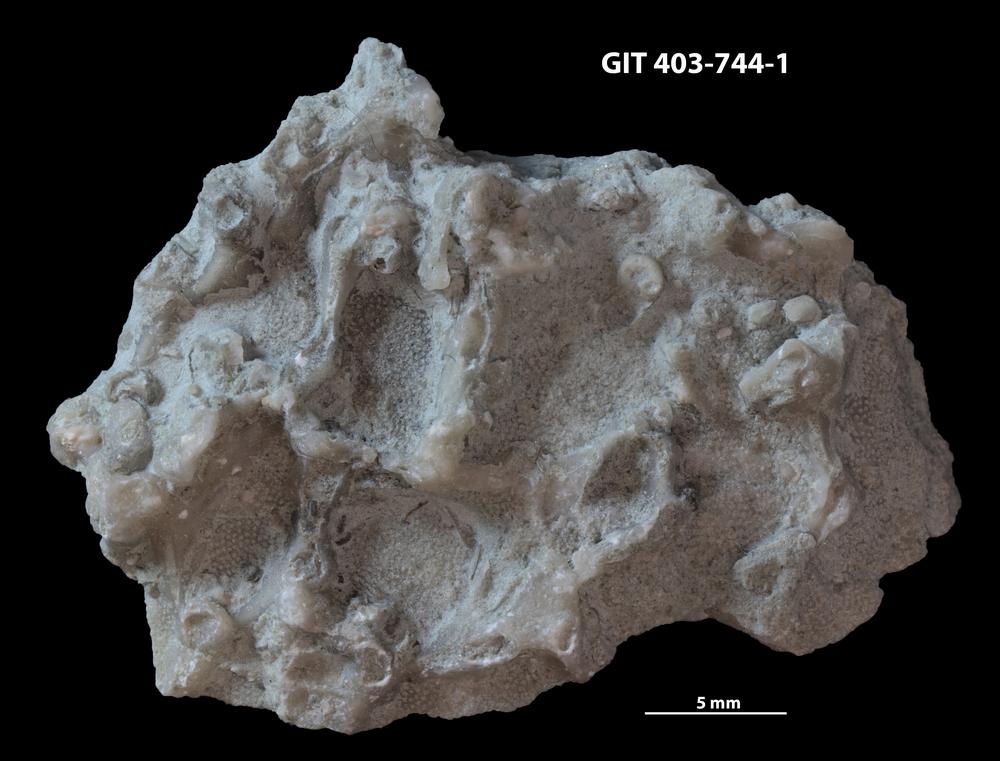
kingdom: Animalia
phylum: Cnidaria
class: Anthozoa
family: Auloporidae
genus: Aulopora
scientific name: Aulopora
